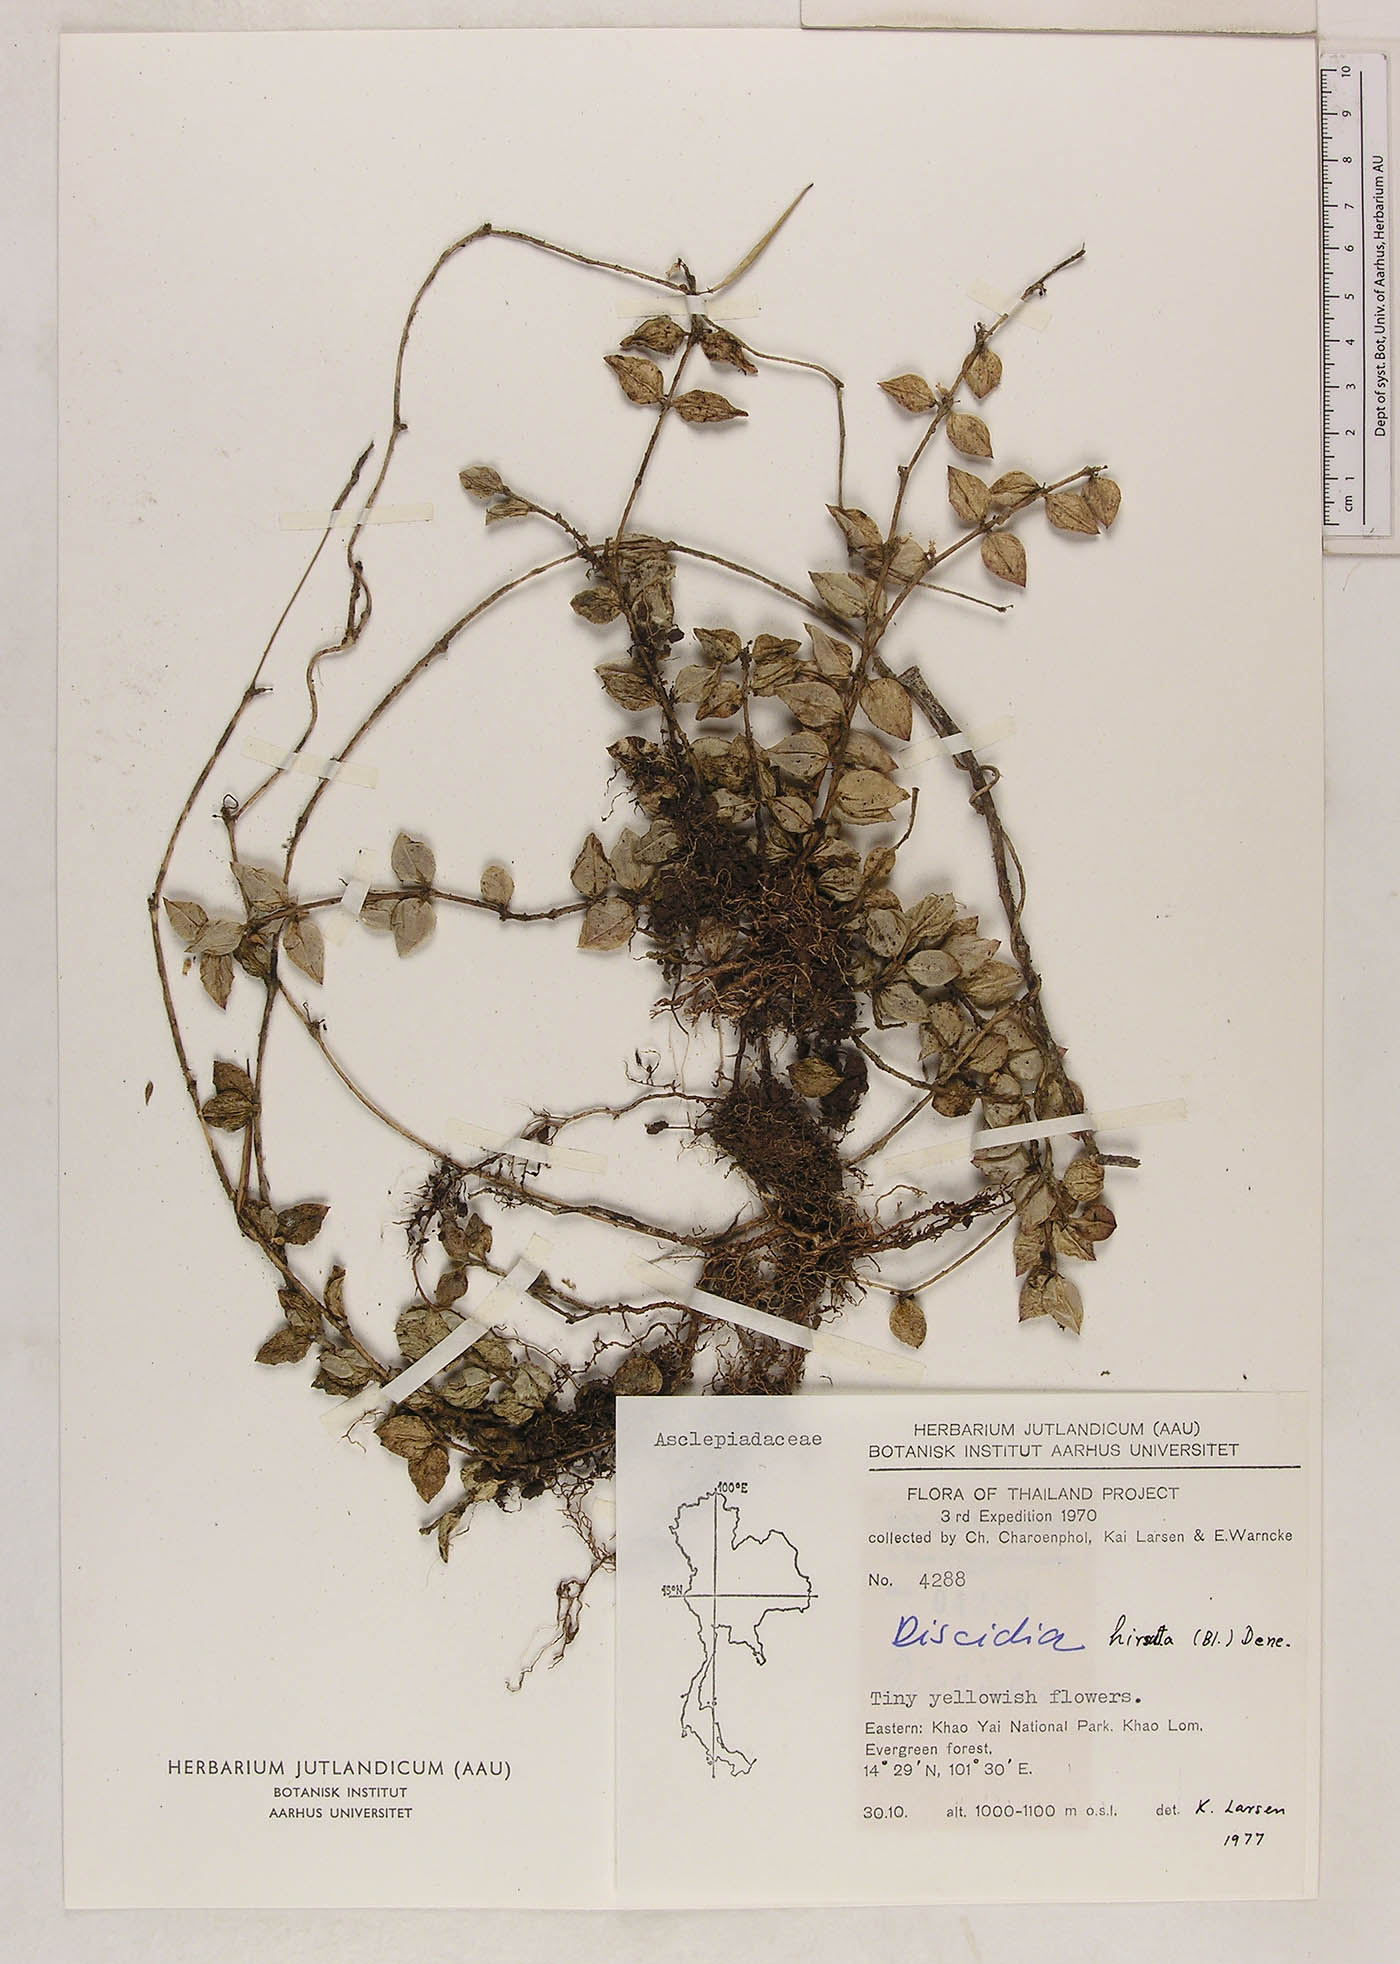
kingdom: Plantae
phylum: Tracheophyta
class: Magnoliopsida
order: Gentianales
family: Apocynaceae
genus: Dischidia
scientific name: Dischidia rimicola
